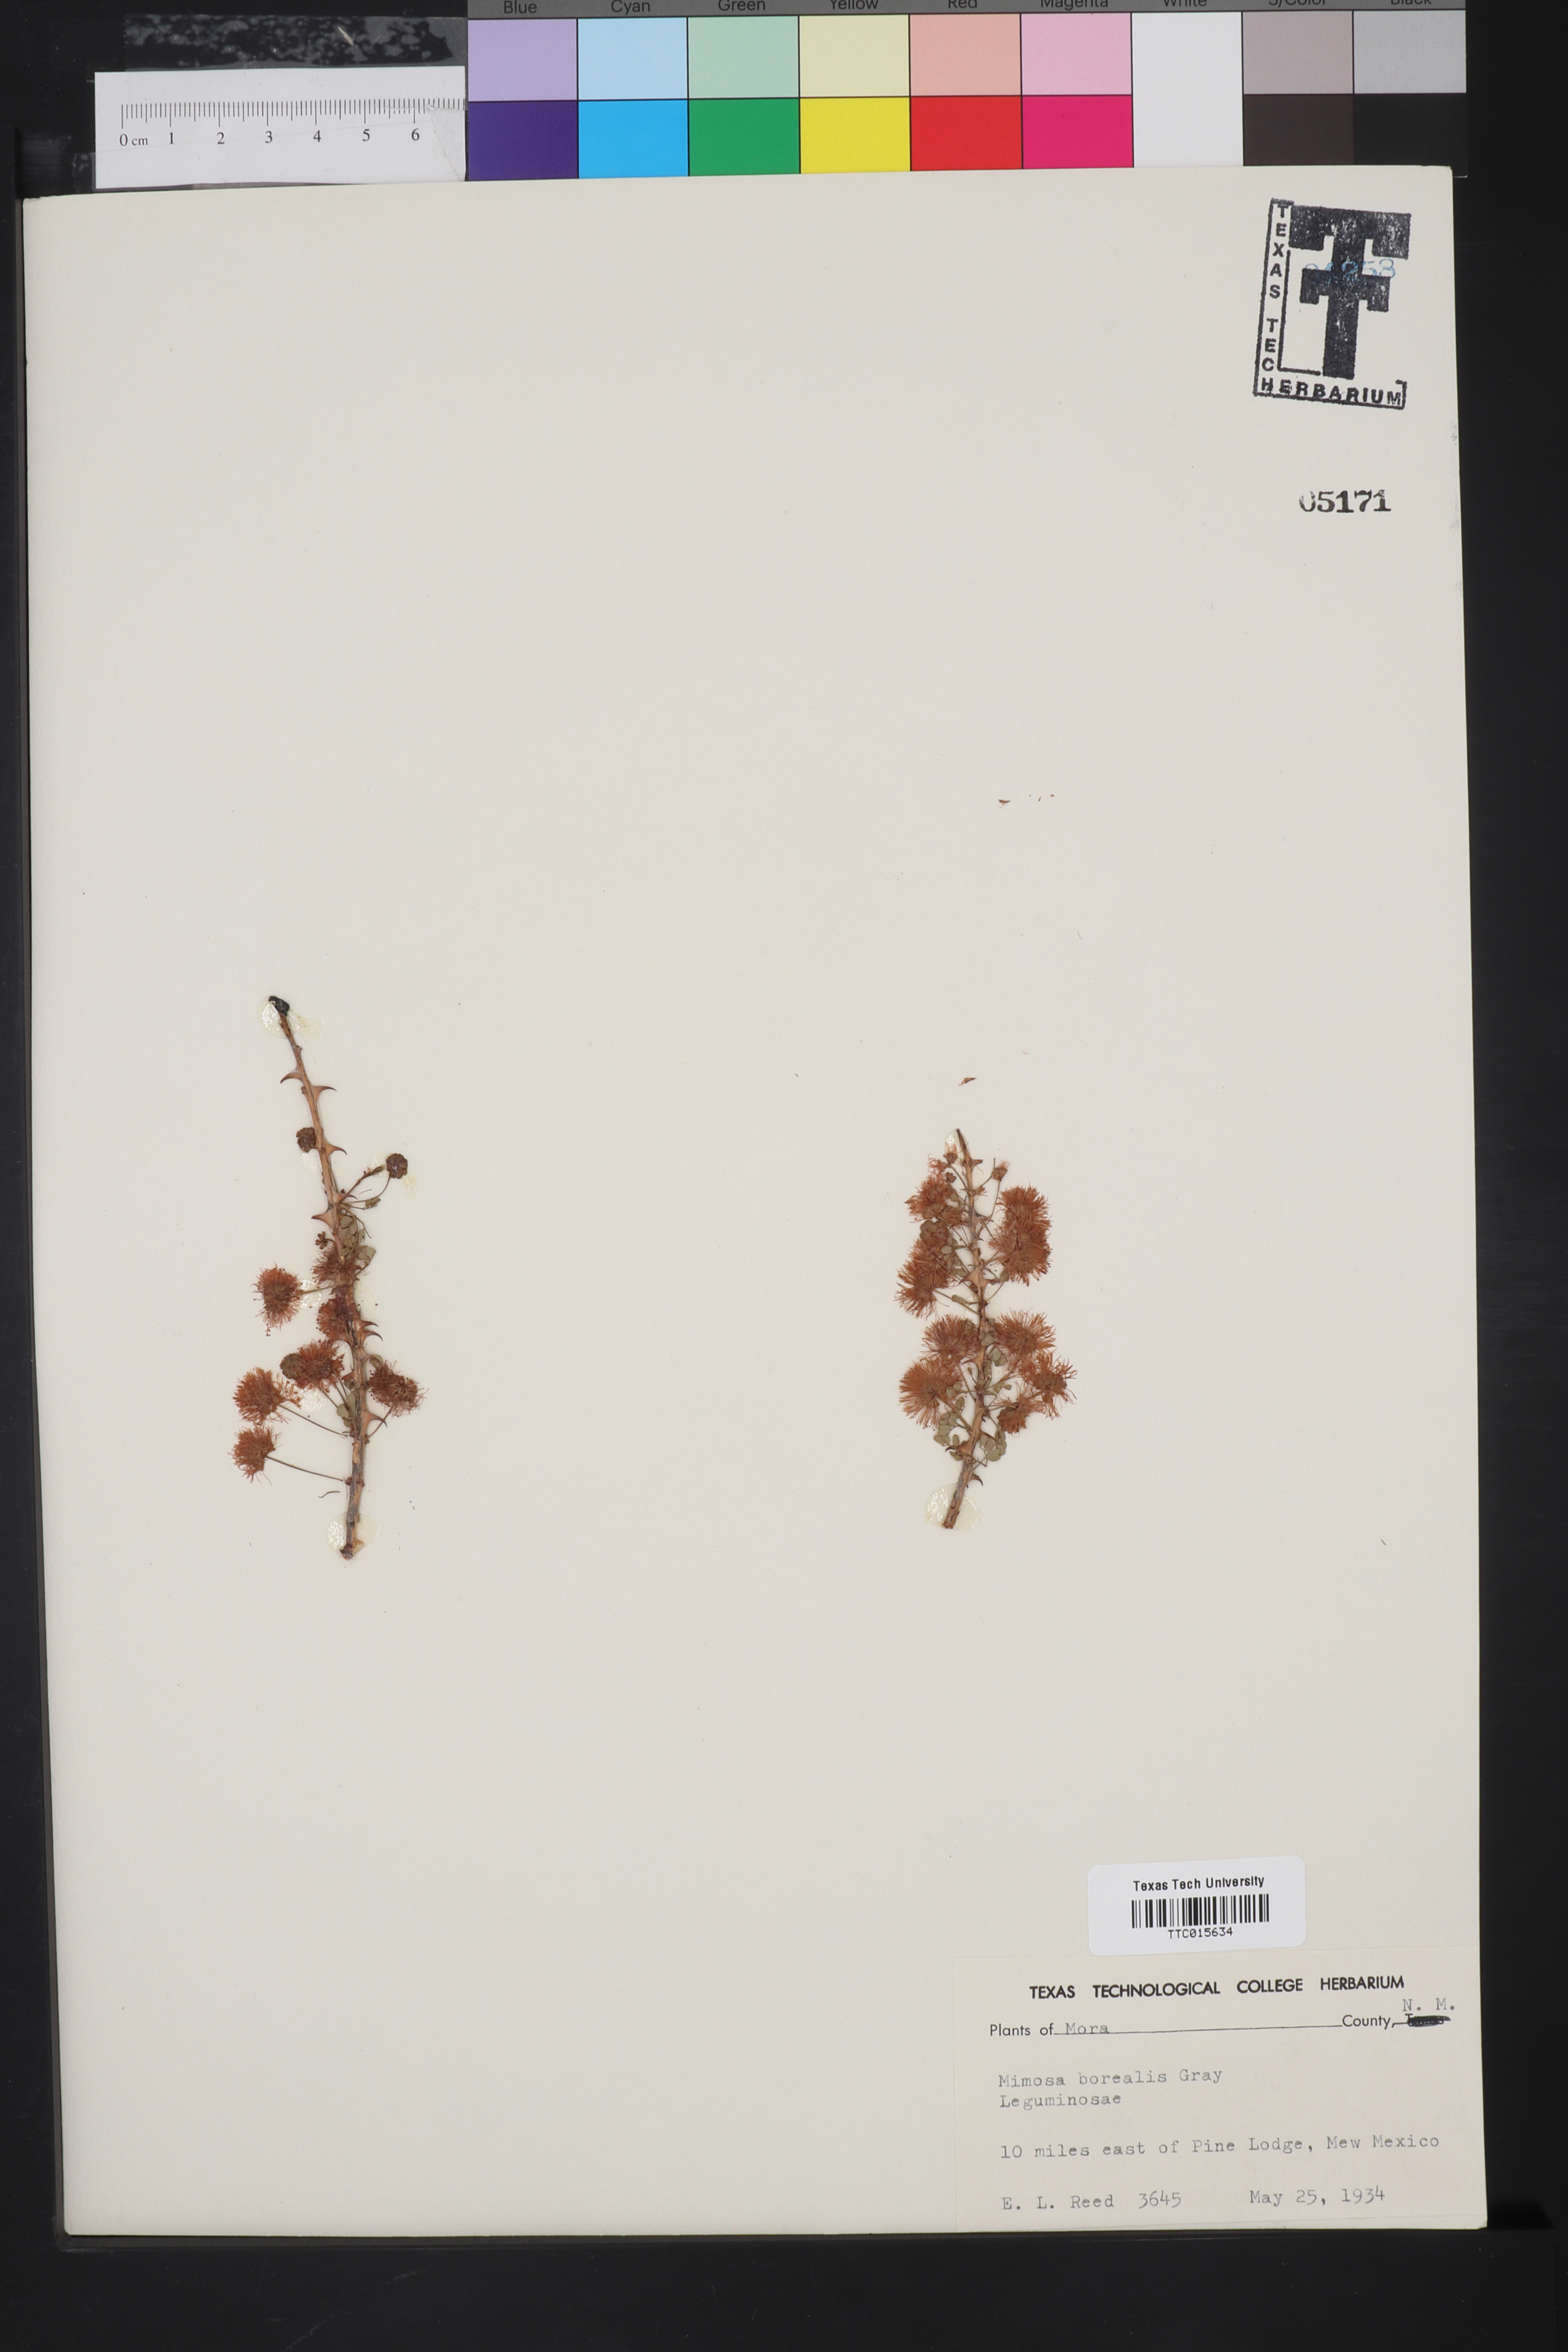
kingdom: Plantae
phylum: Tracheophyta
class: Magnoliopsida
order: Fabales
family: Fabaceae
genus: Mimosa
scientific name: Mimosa borealis
